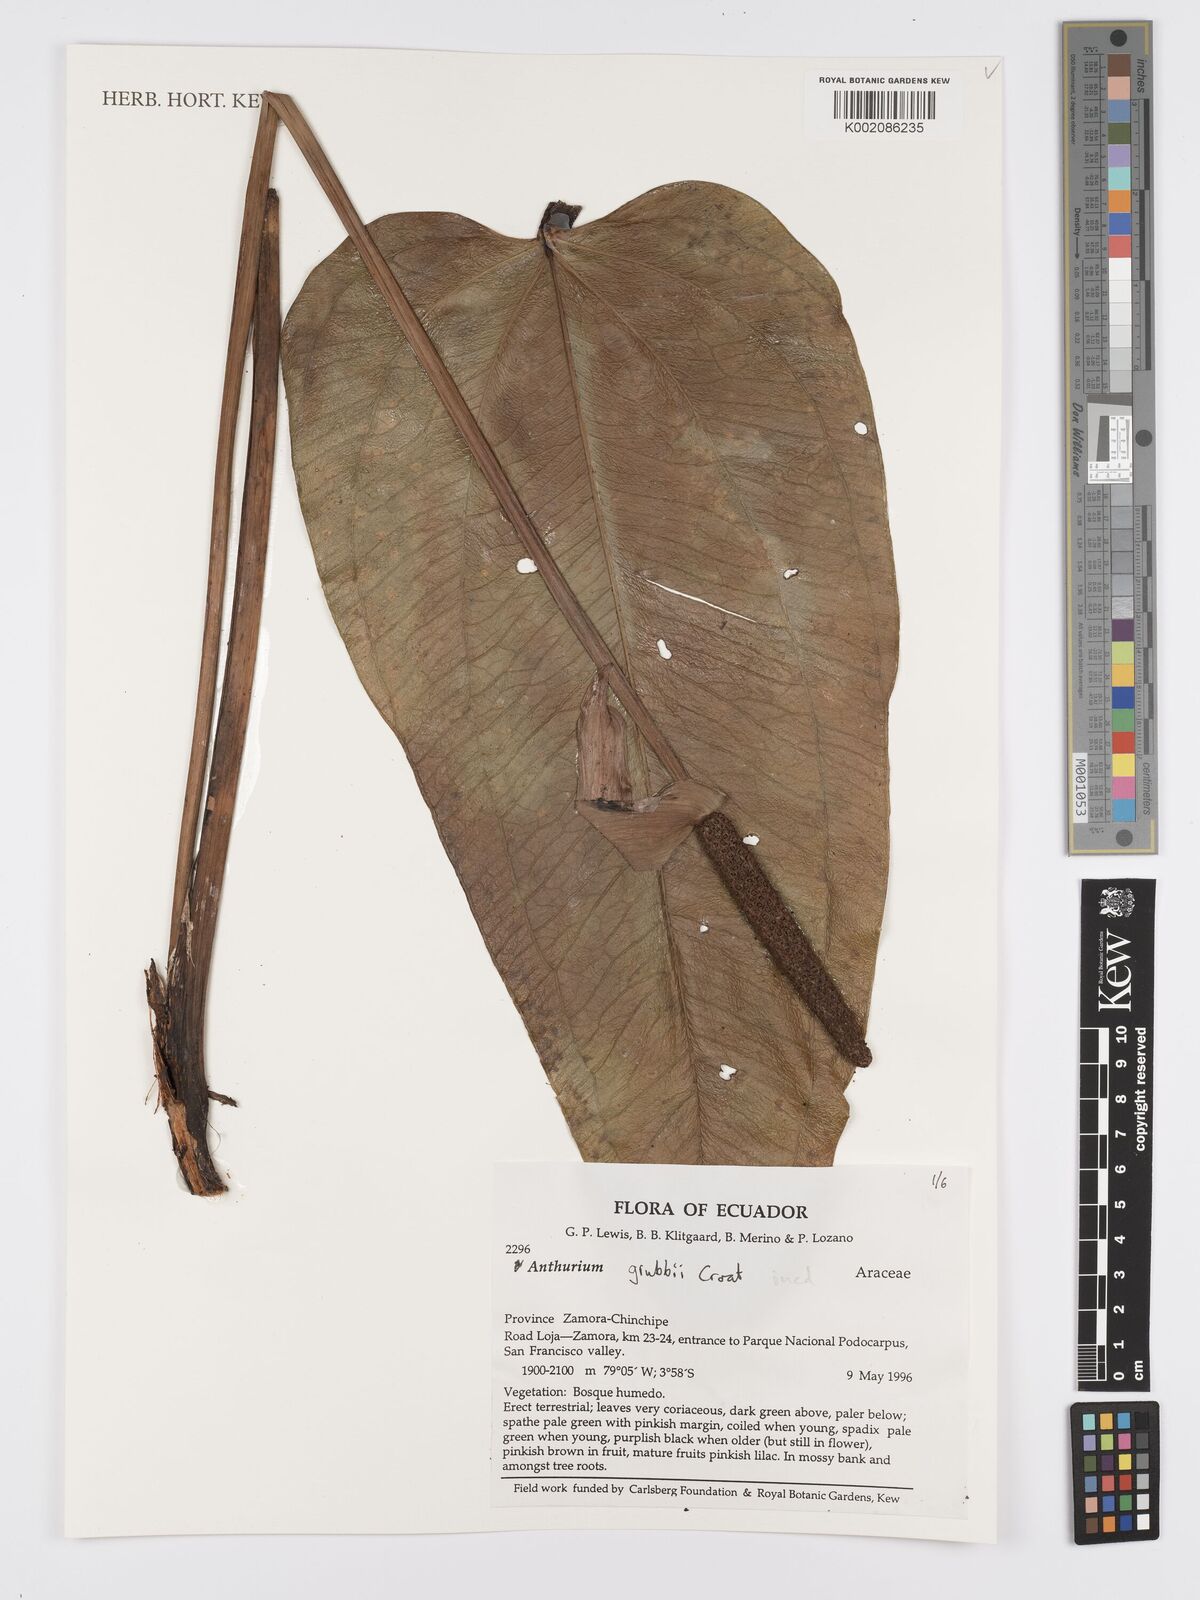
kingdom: Plantae
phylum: Tracheophyta
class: Liliopsida
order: Alismatales
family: Araceae
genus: Anthurium
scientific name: Anthurium
